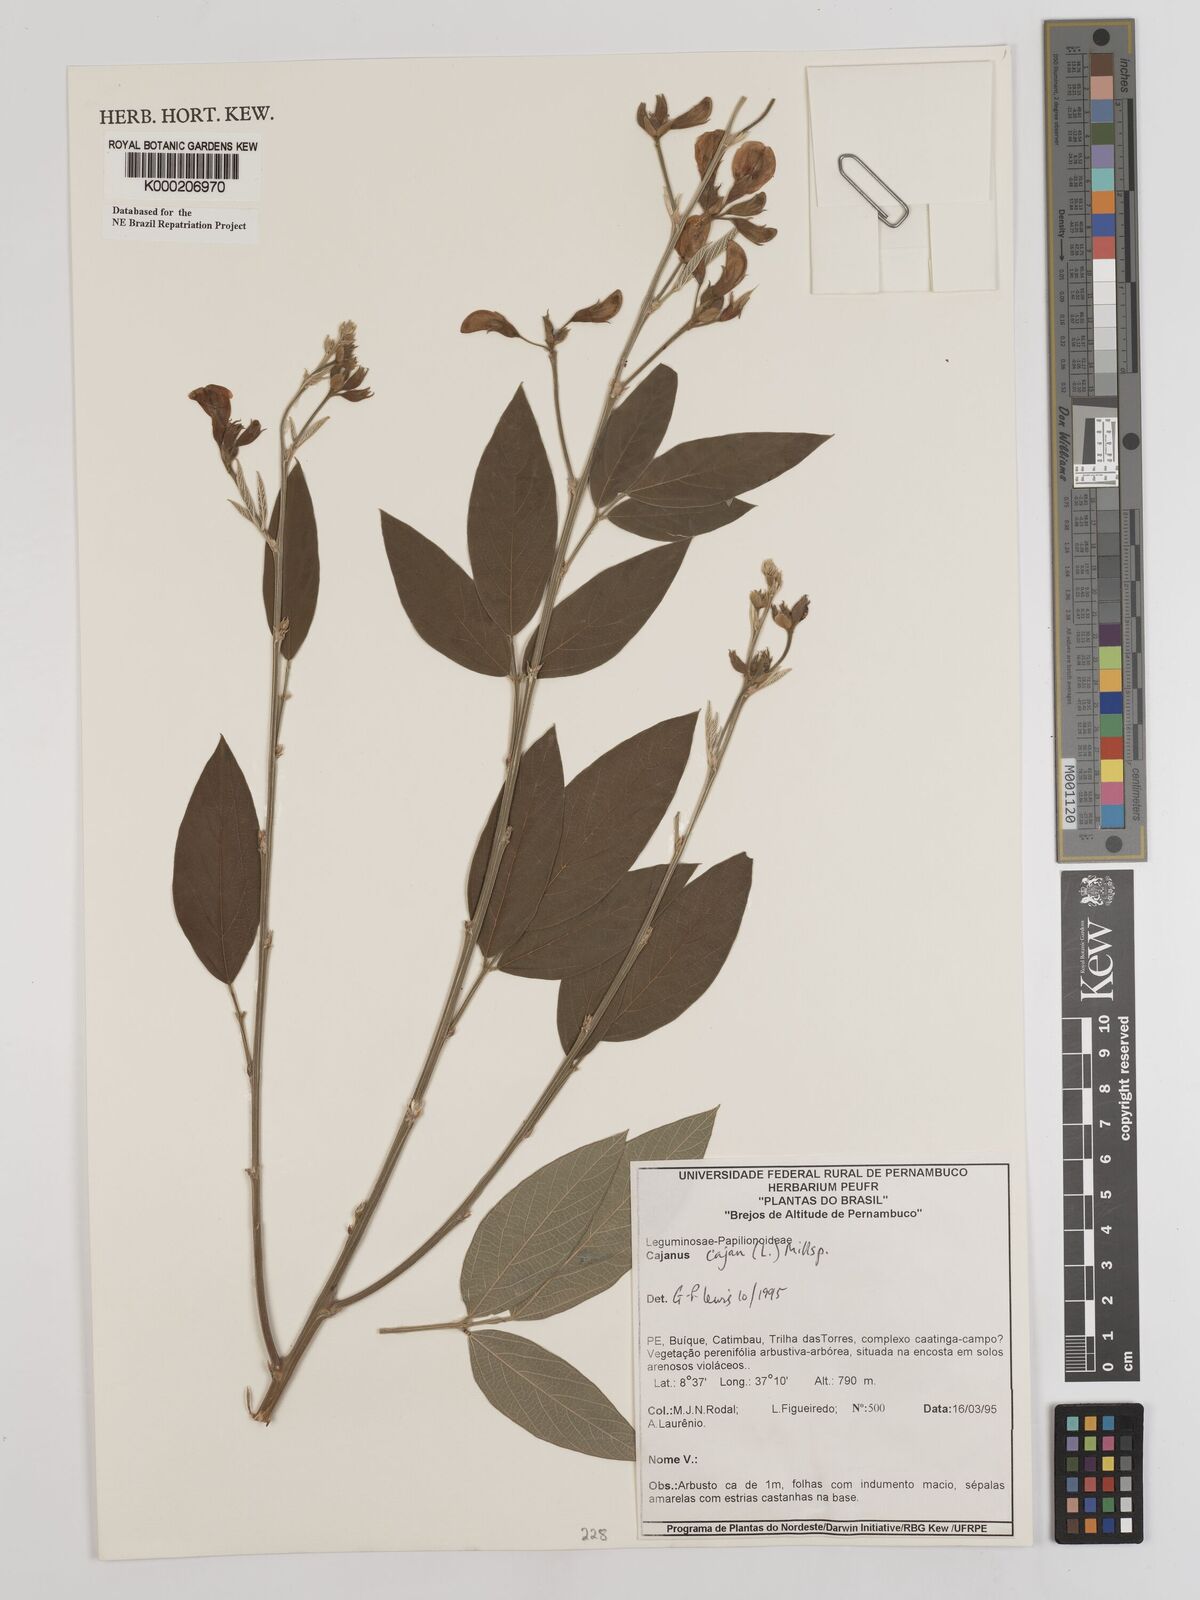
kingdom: Plantae
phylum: Tracheophyta
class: Magnoliopsida
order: Fabales
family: Fabaceae
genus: Cajanus
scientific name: Cajanus
